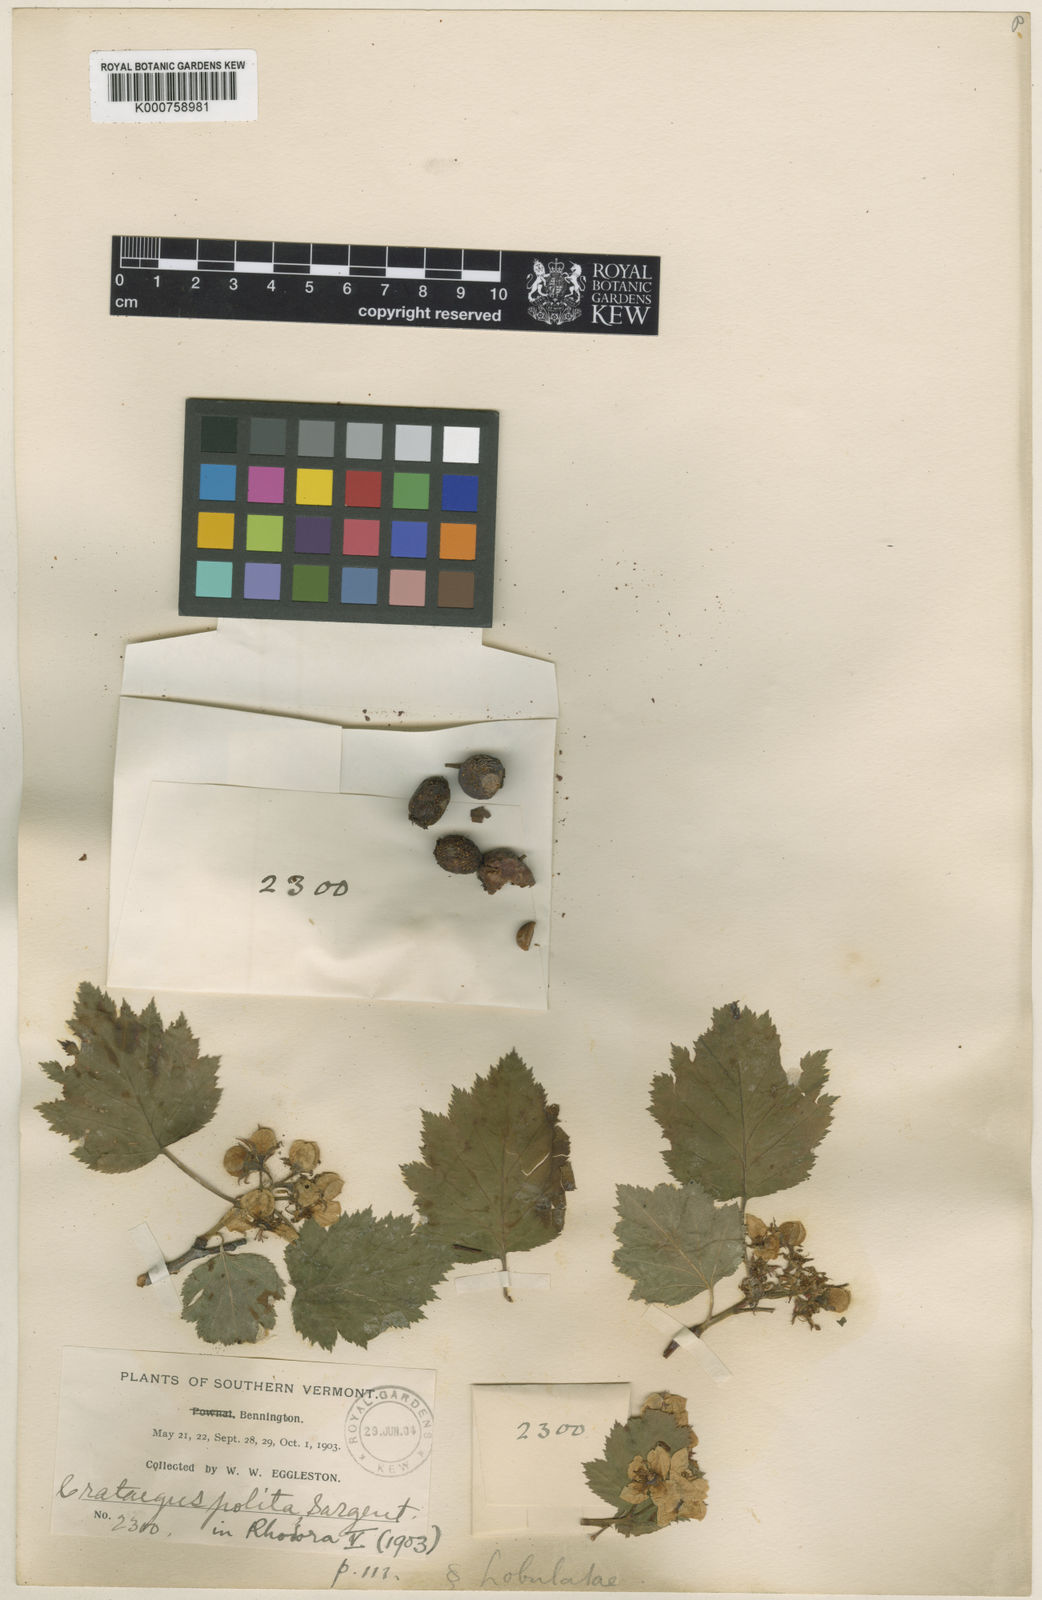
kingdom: Plantae
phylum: Tracheophyta
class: Magnoliopsida
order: Rosales
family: Rosaceae
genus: Crataegus
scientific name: Crataegus coccinea
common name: Scarlet hawthorn
